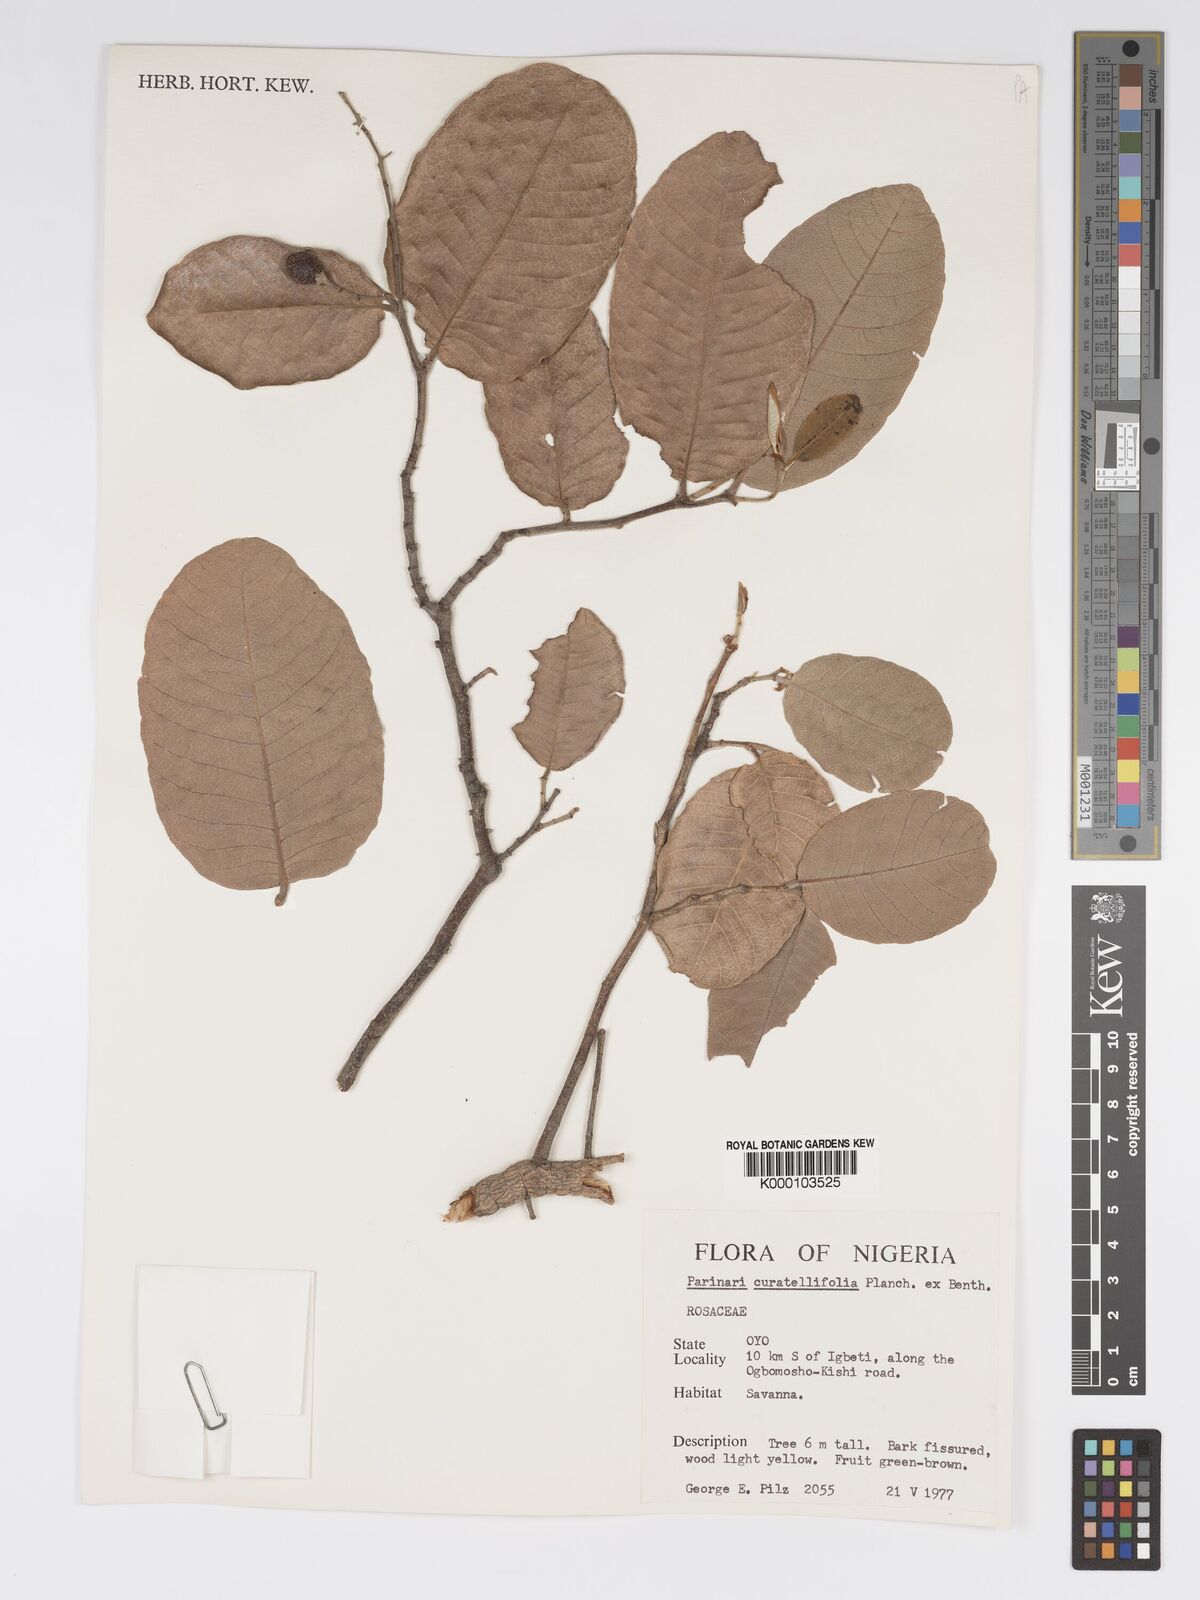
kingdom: Plantae
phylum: Tracheophyta
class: Magnoliopsida
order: Malpighiales
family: Chrysobalanaceae
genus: Parinari
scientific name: Parinari curatellifolia
